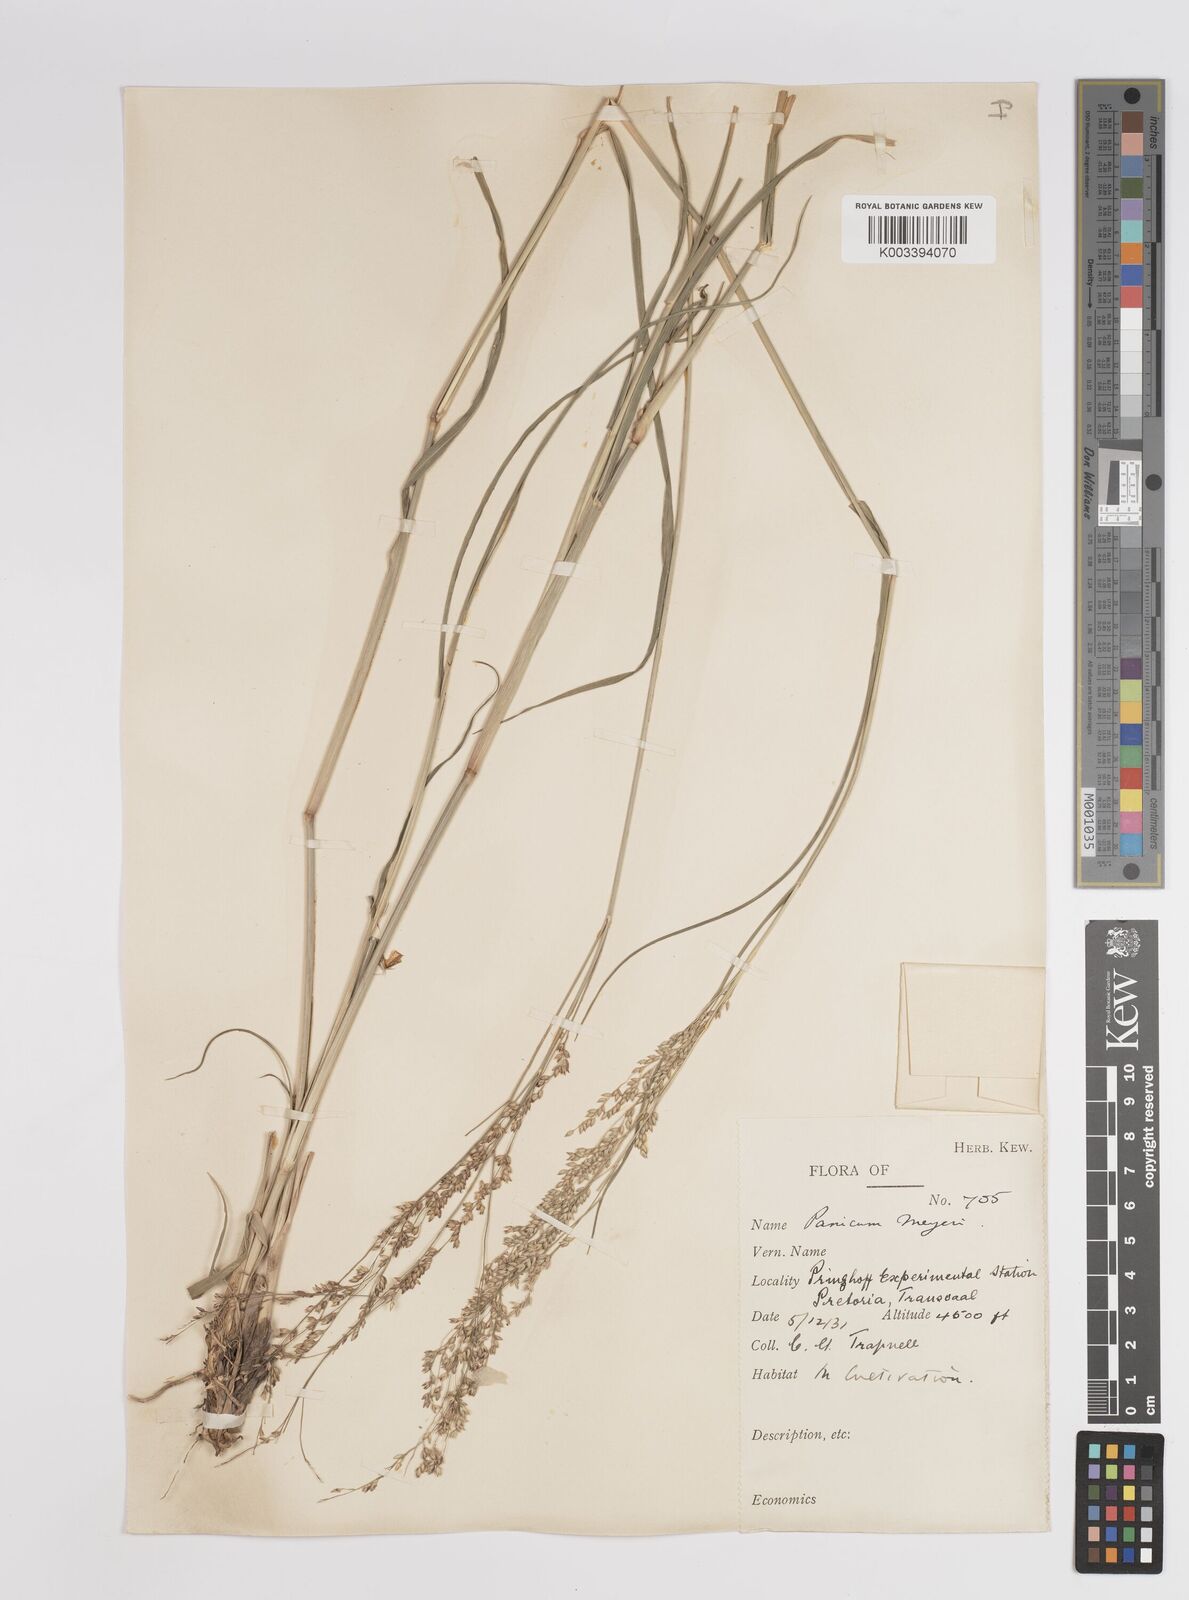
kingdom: Plantae
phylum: Tracheophyta
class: Liliopsida
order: Poales
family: Poaceae
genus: Panicum
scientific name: Panicum coloratum
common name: Kleingrass
